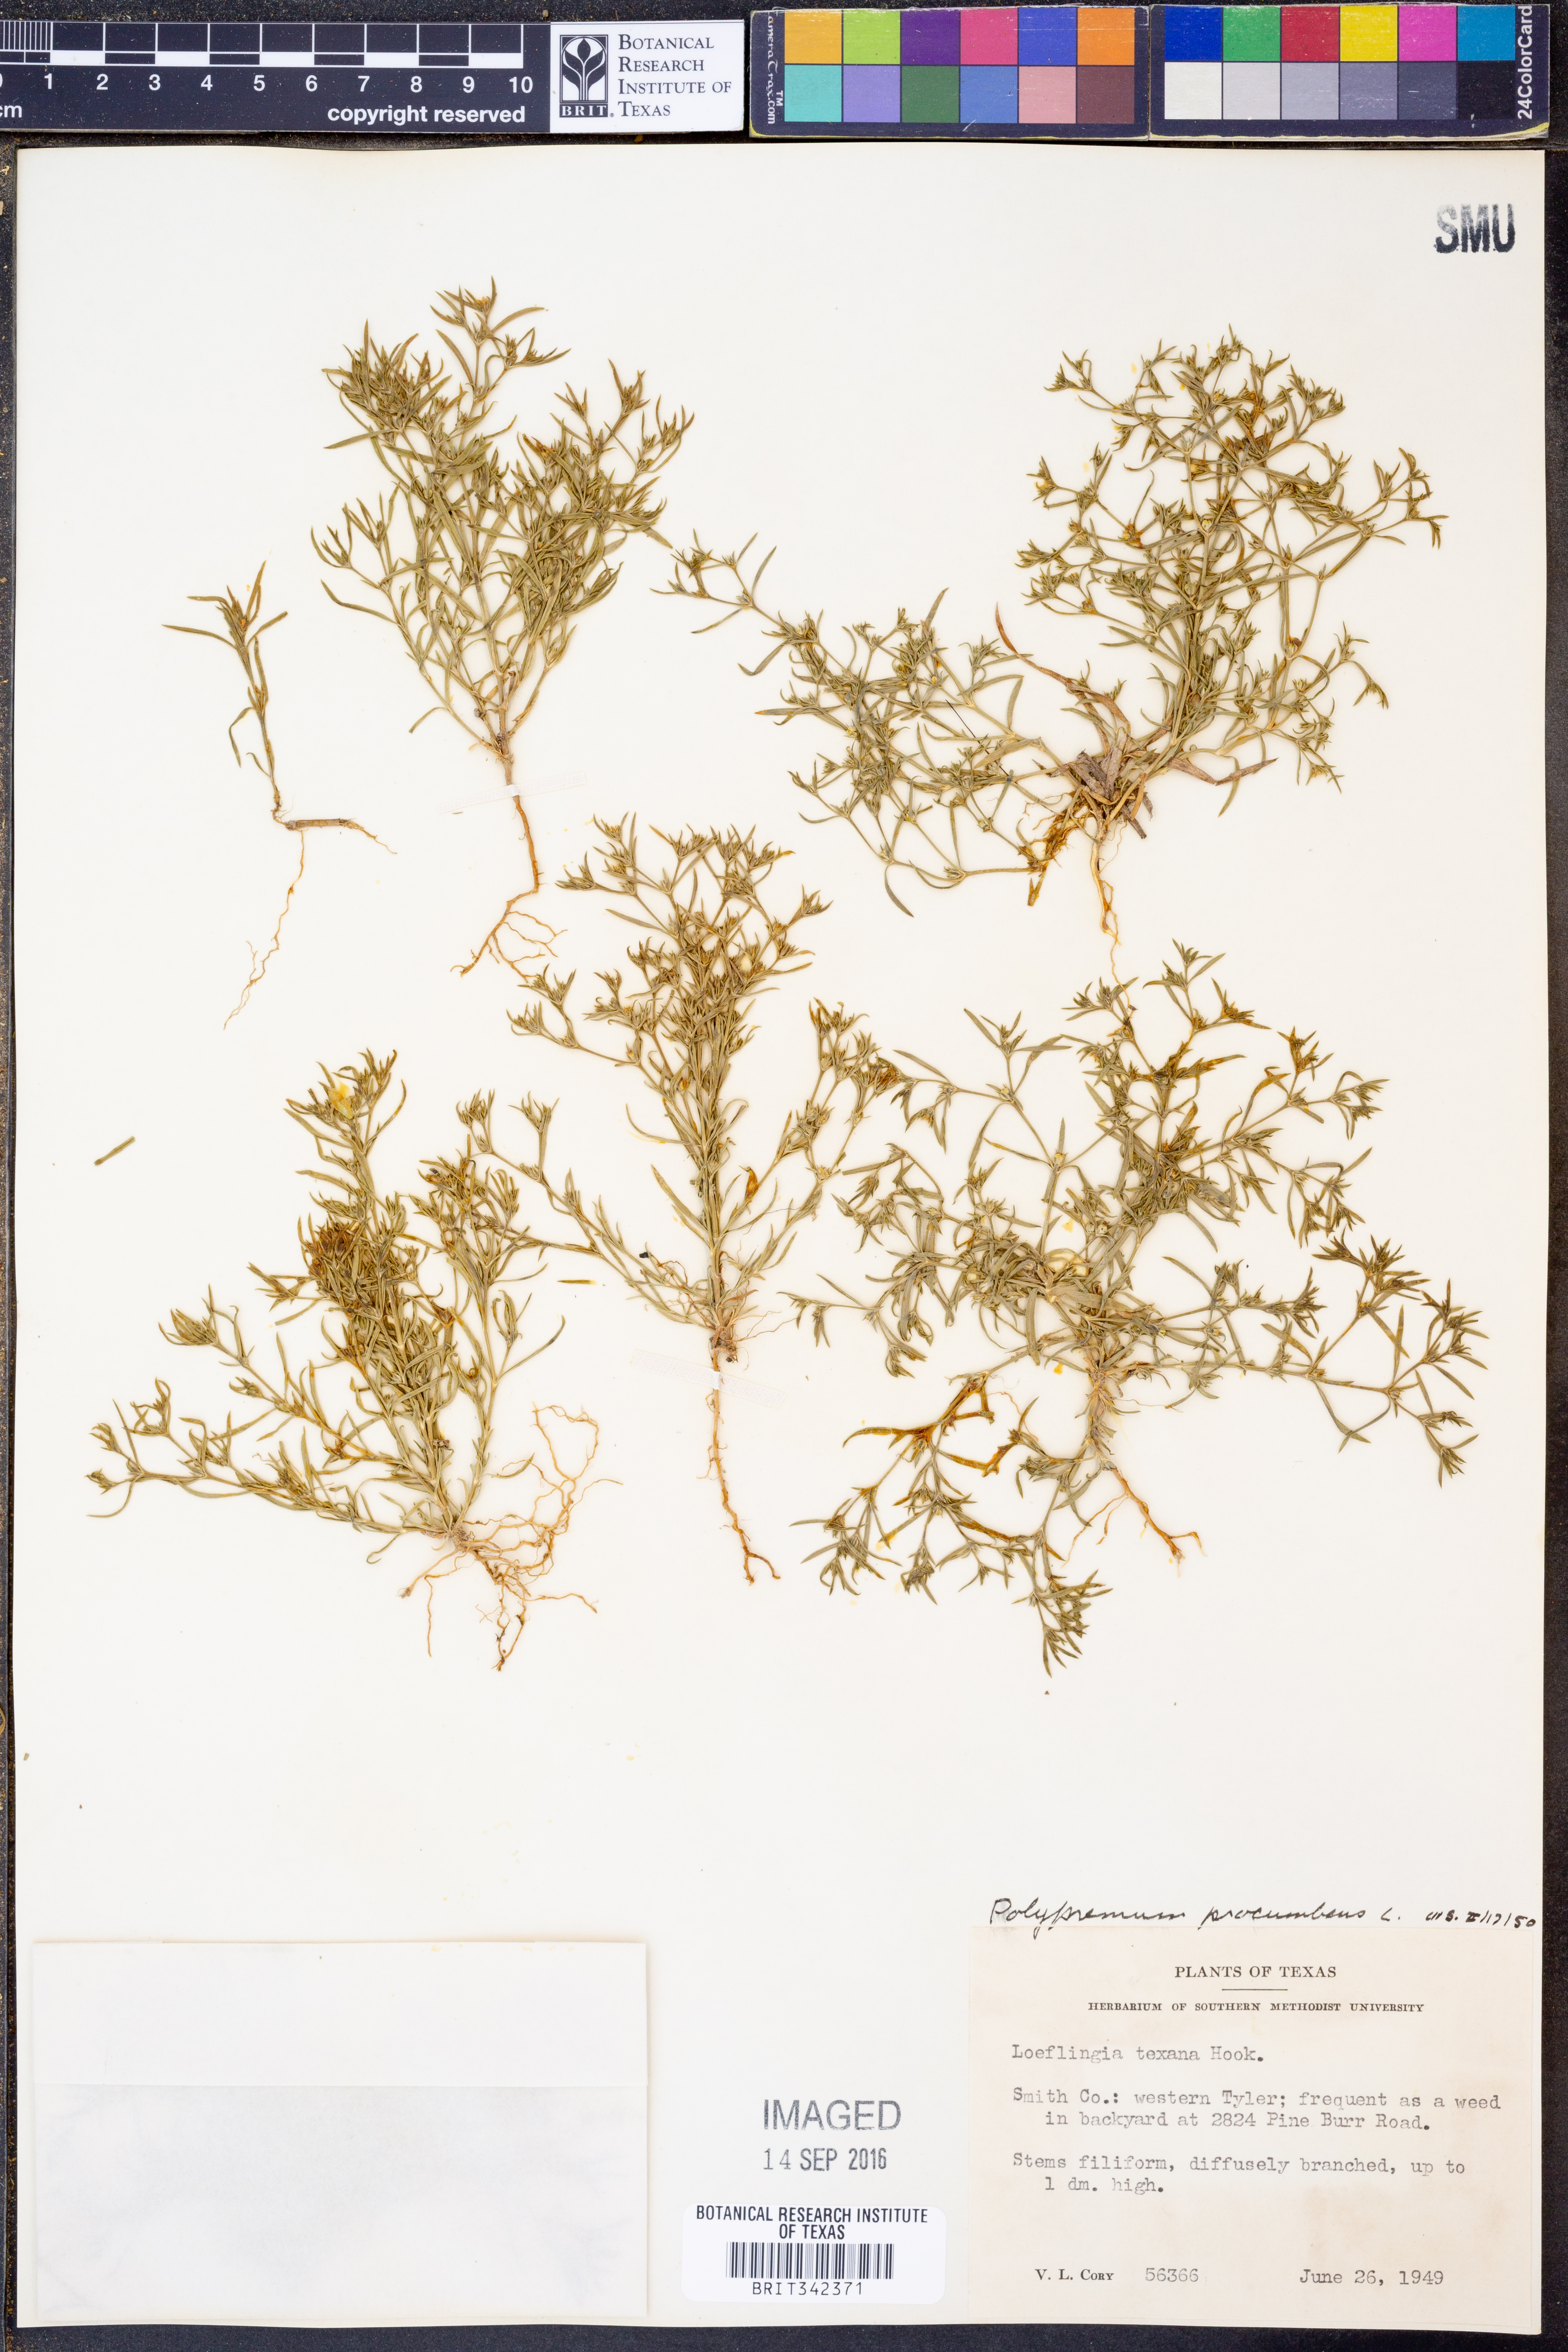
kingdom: Plantae
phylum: Tracheophyta
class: Magnoliopsida
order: Lamiales
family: Tetrachondraceae
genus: Polypremum
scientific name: Polypremum procumbens
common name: Juniper-leaf
